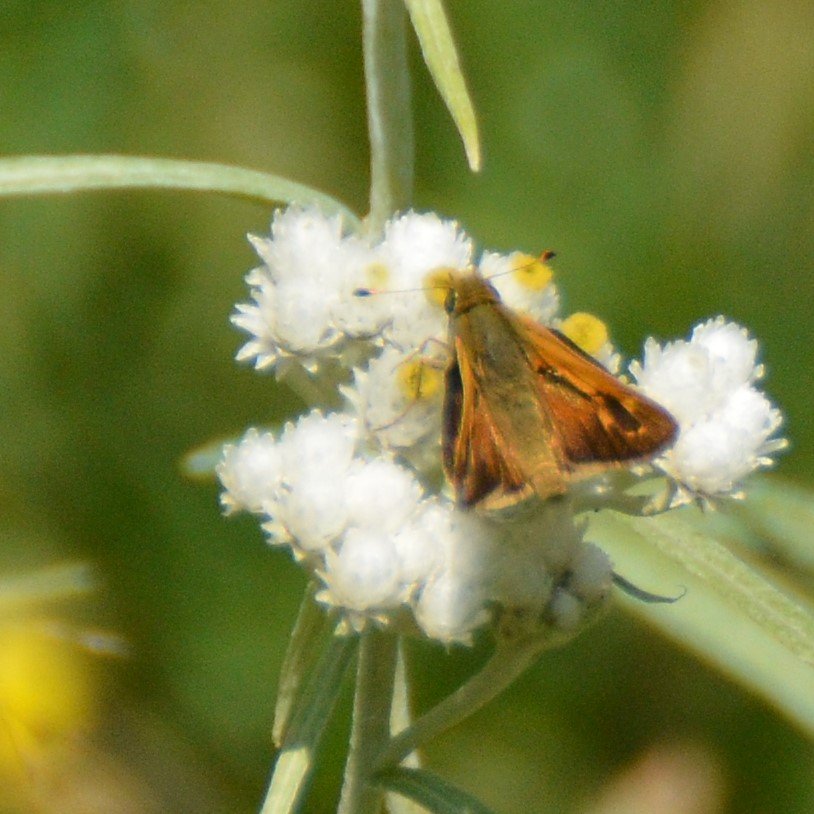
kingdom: Animalia
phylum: Arthropoda
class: Insecta
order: Lepidoptera
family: Hesperiidae
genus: Hesperia
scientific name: Hesperia comma
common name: Common Branded Skipper
